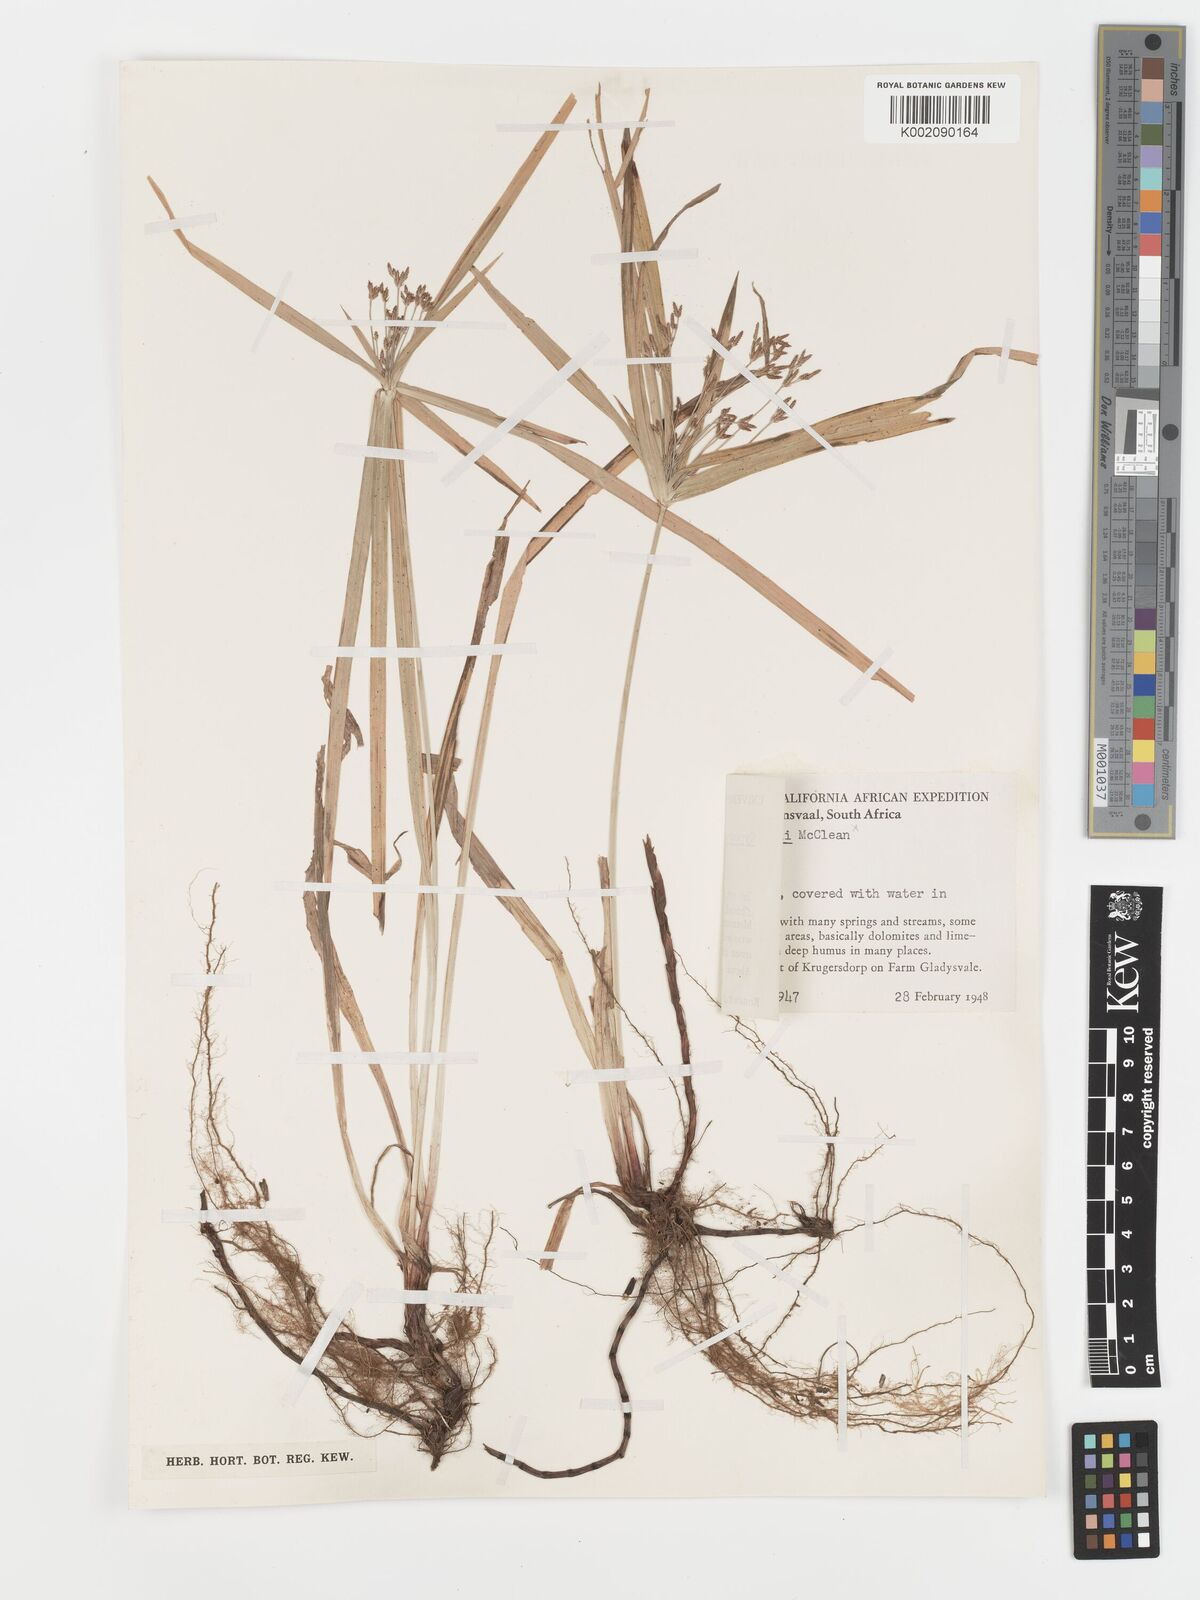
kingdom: Plantae
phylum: Tracheophyta
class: Liliopsida
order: Poales
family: Cyperaceae
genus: Cyperus
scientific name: Cyperus albostriatus
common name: Dwarf umbrella-grass
